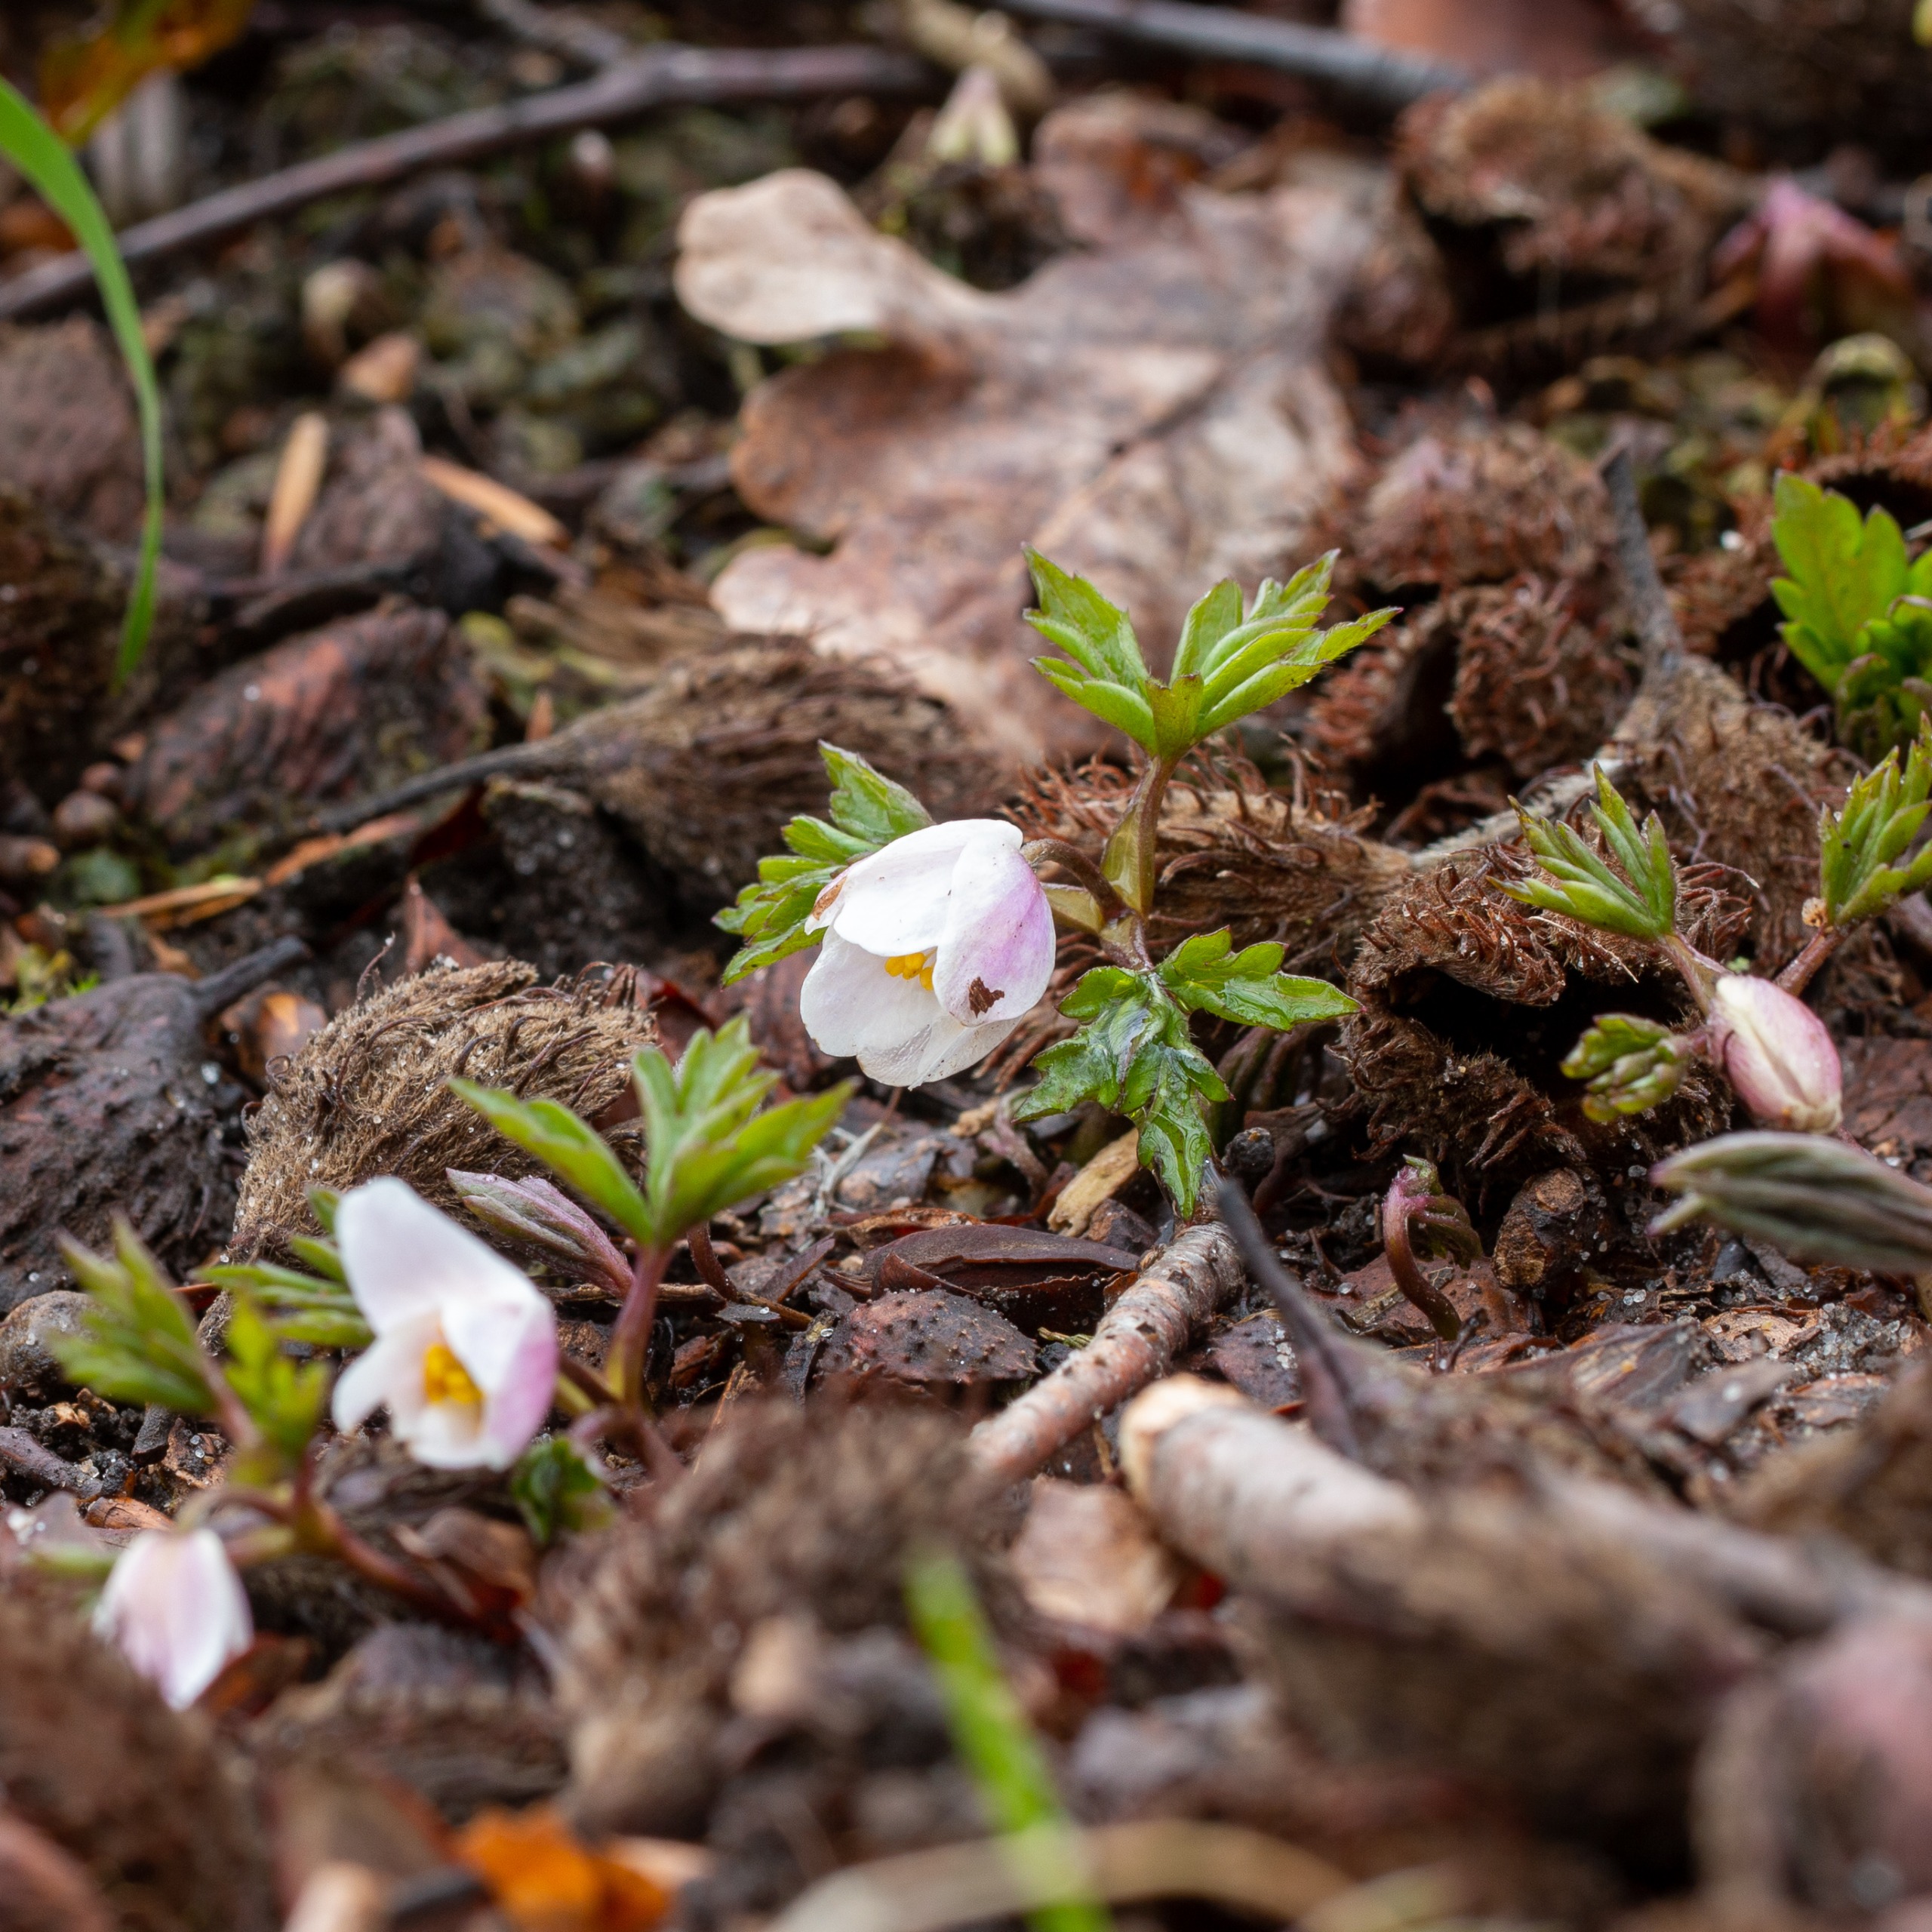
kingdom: Plantae
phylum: Tracheophyta
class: Magnoliopsida
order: Ranunculales
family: Ranunculaceae
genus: Anemone
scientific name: Anemone nemorosa
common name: Hvid anemone
